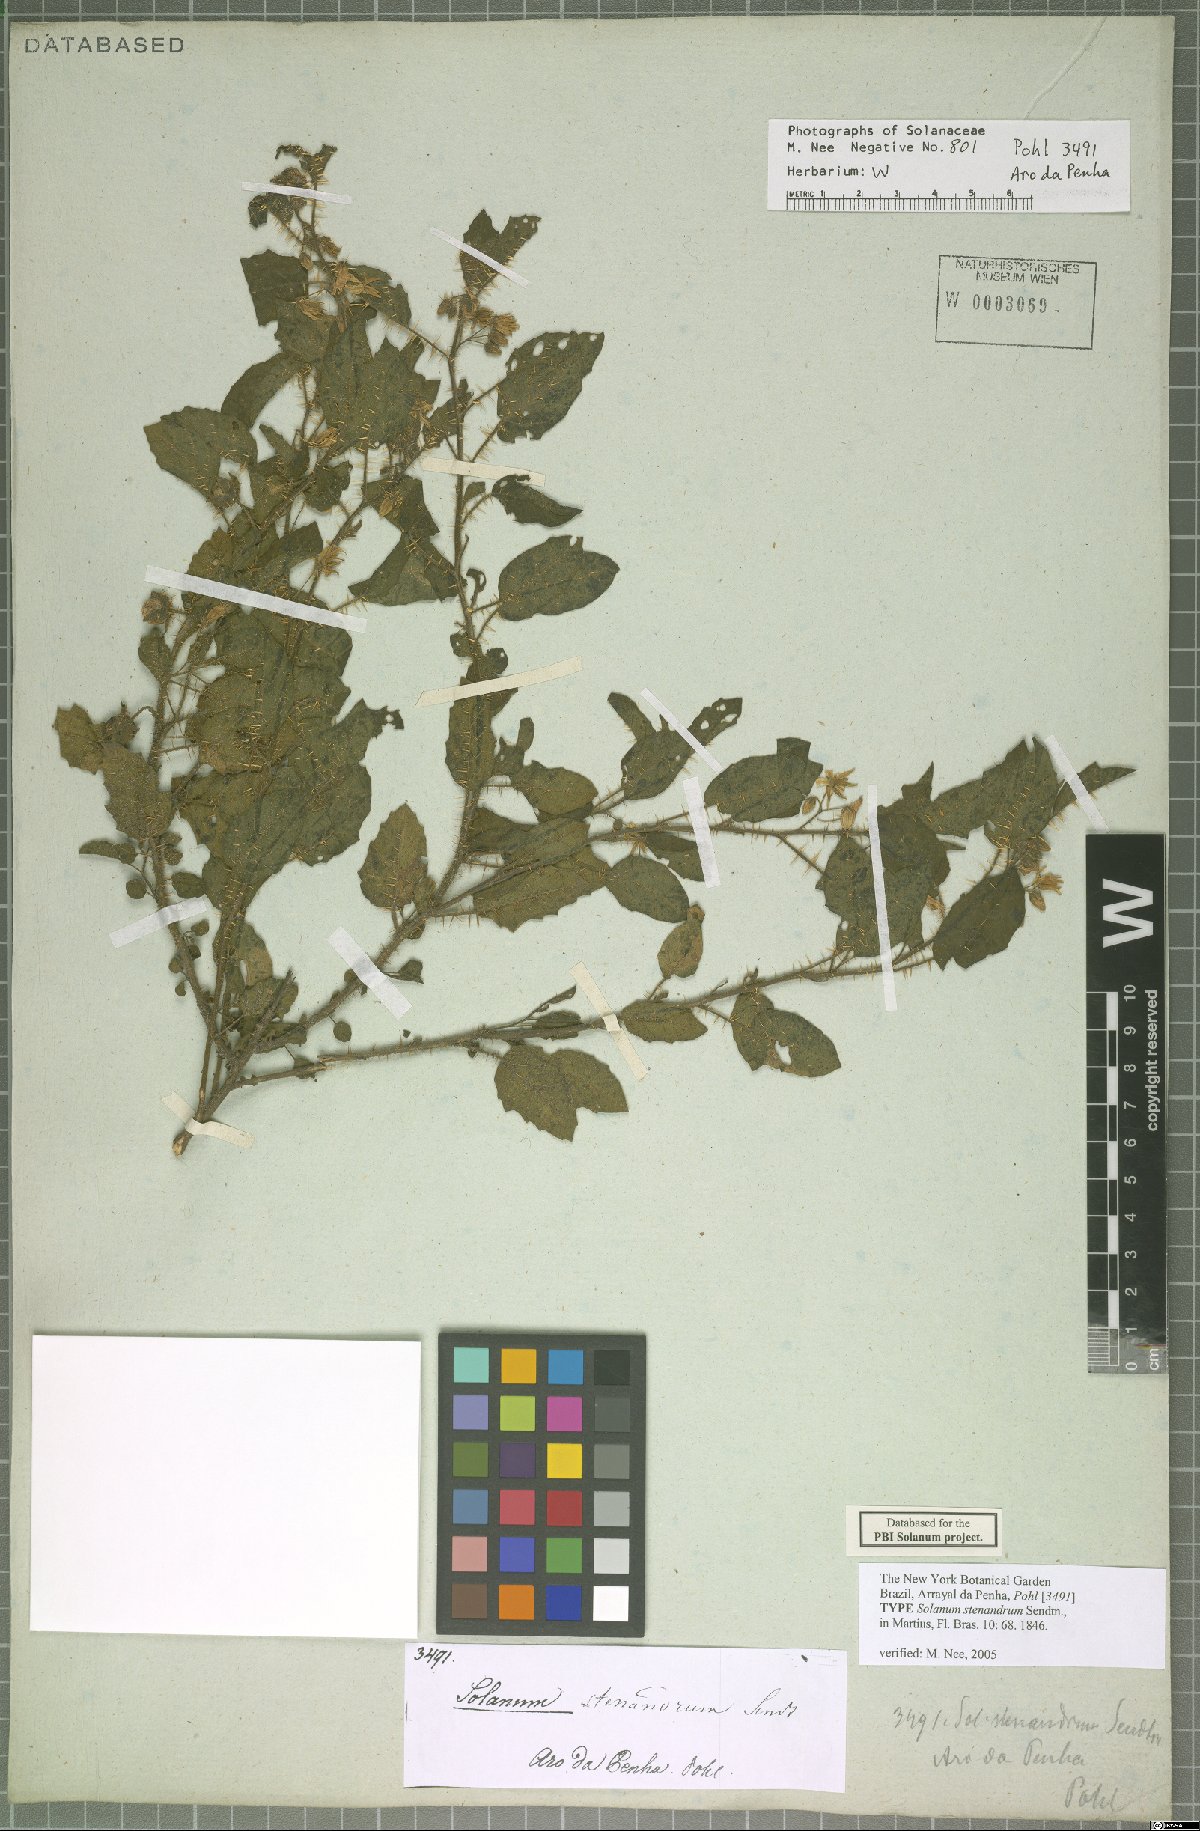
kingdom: Plantae
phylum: Tracheophyta
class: Magnoliopsida
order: Solanales
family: Solanaceae
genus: Solanum
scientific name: Solanum stenandrum
